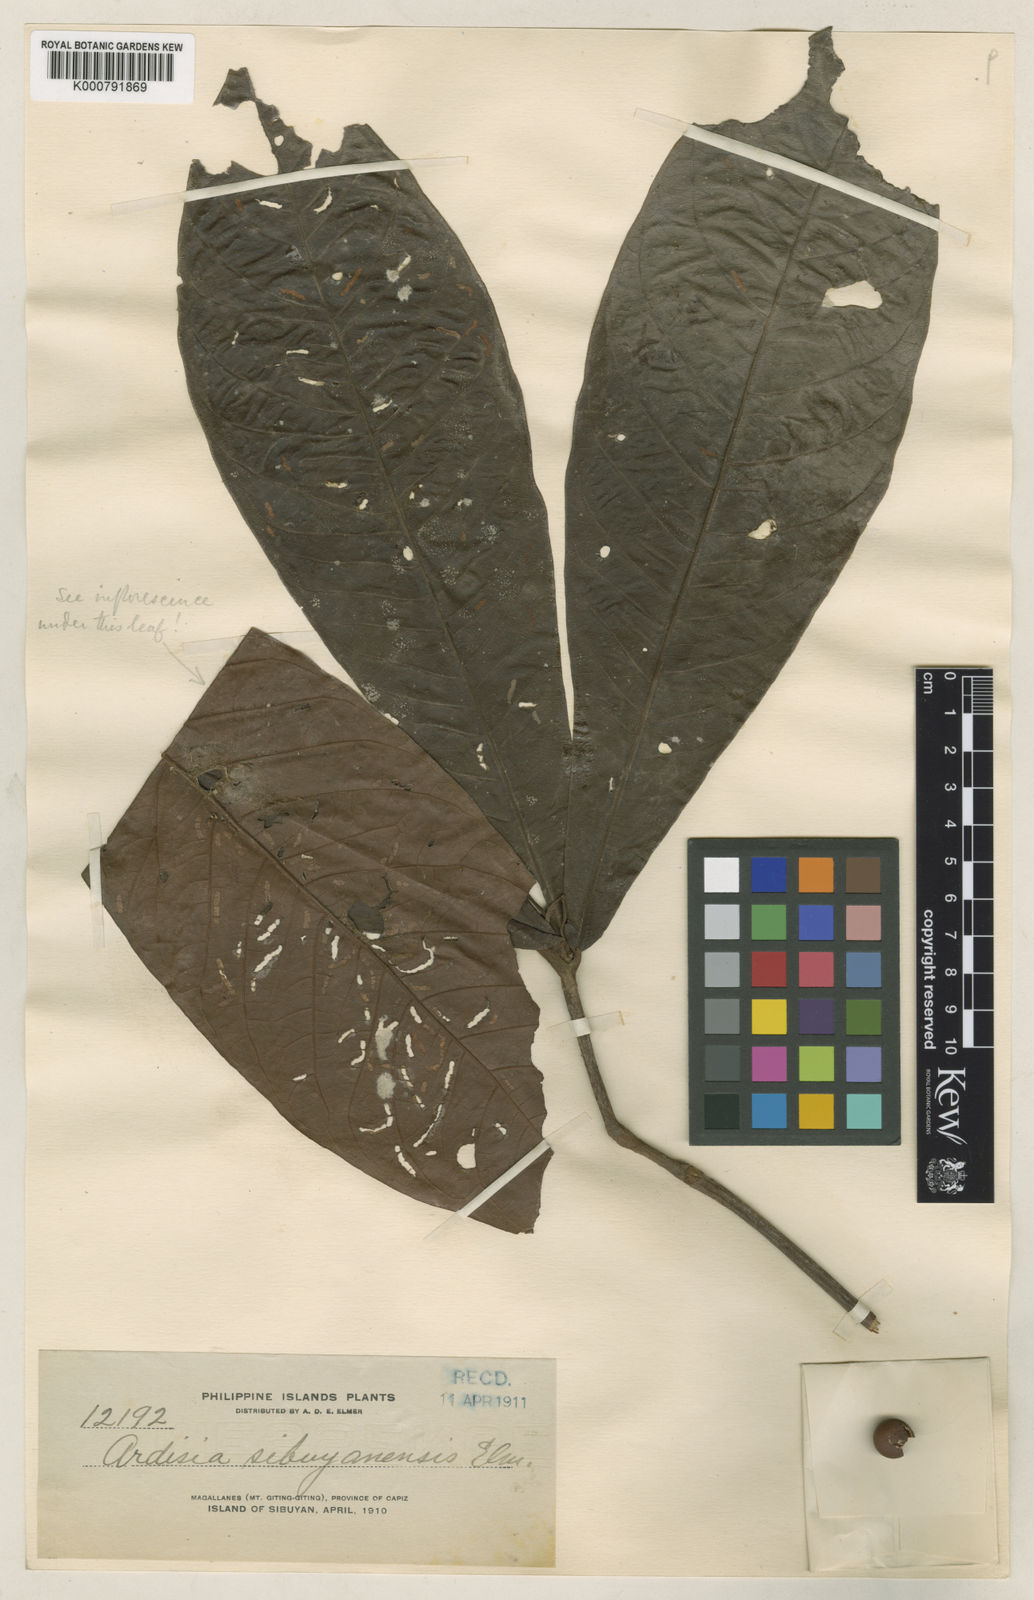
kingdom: Plantae
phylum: Tracheophyta
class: Magnoliopsida
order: Ericales
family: Primulaceae
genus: Ardisia
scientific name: Ardisia brevipetiolata
